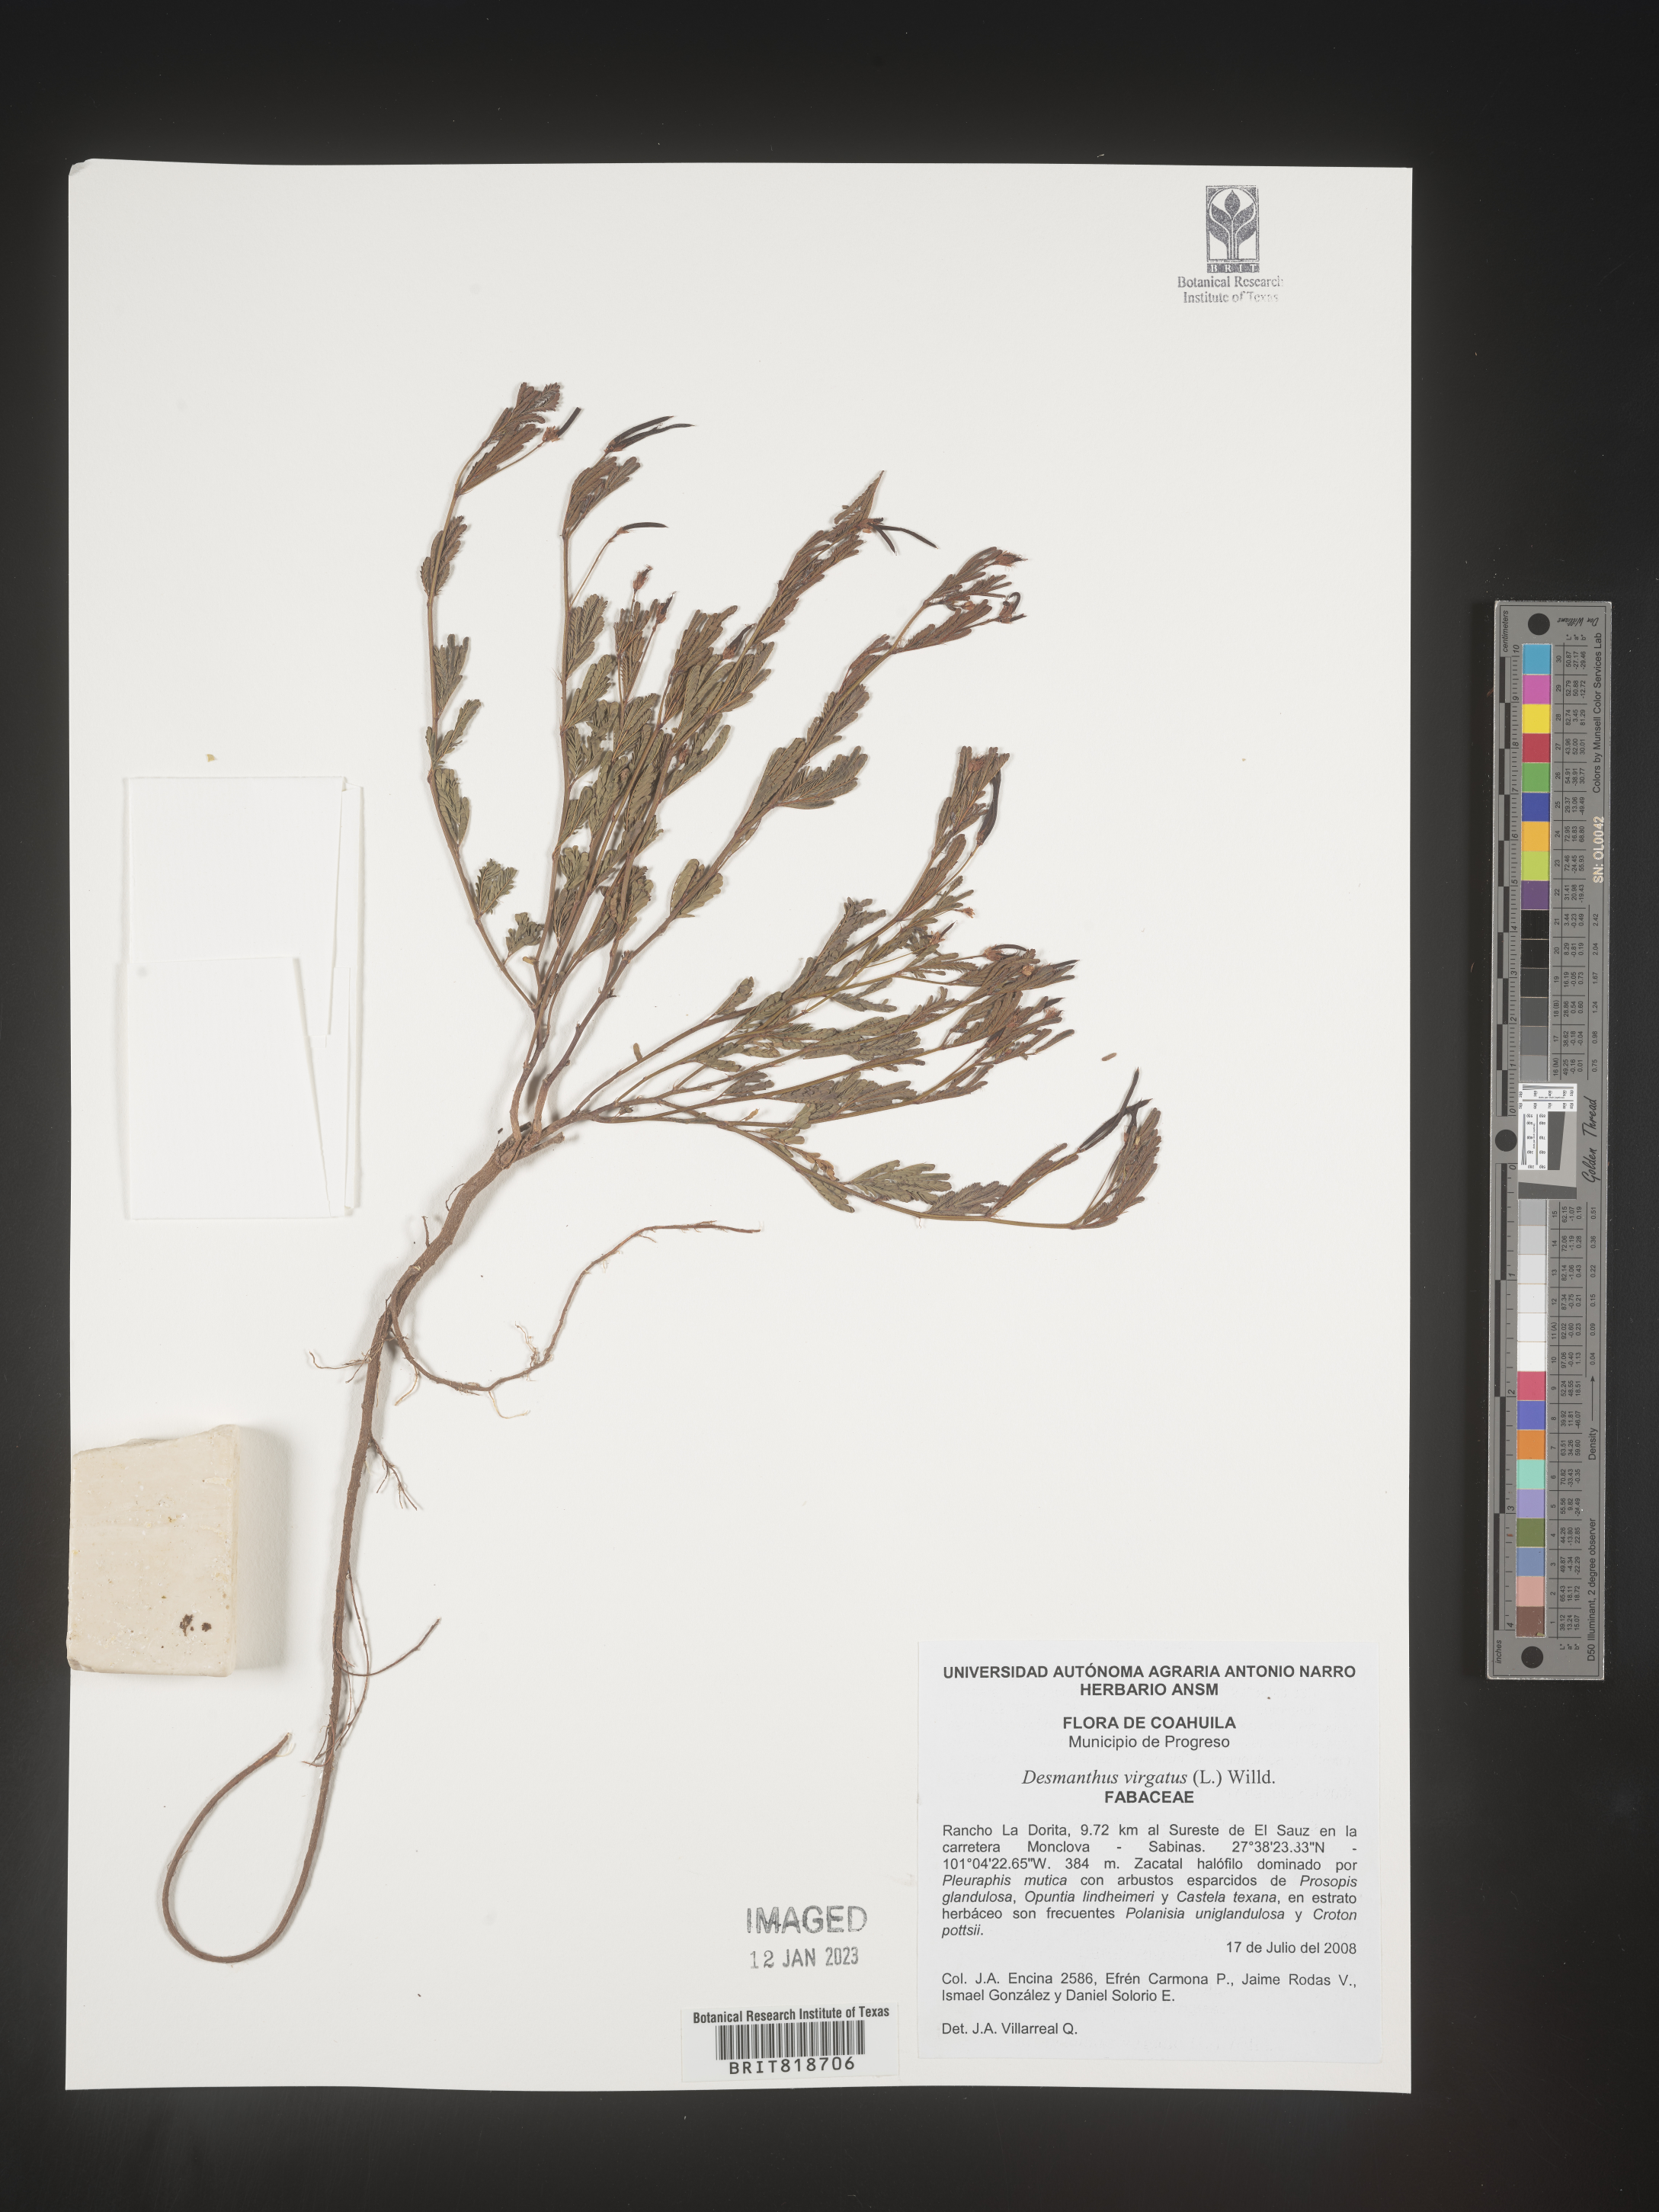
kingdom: Plantae
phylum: Tracheophyta
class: Magnoliopsida
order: Fabales
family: Fabaceae
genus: Desmanthus
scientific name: Desmanthus
